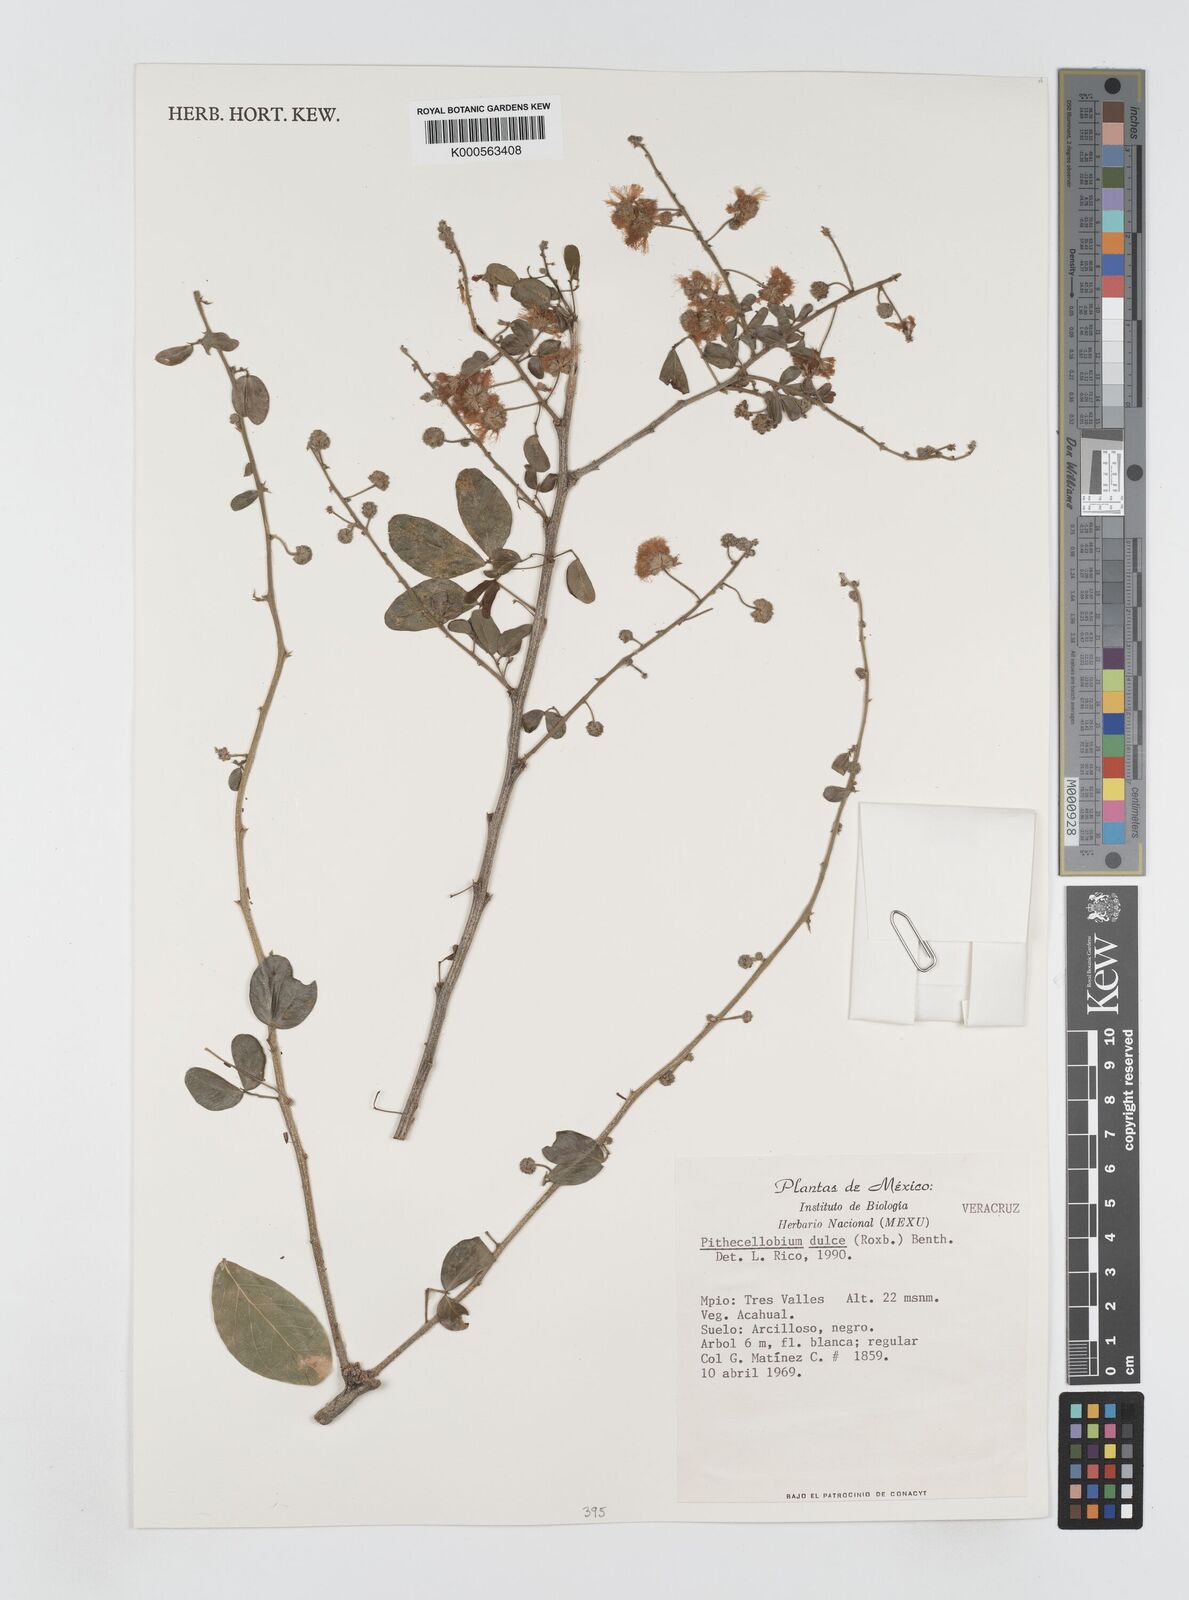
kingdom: Plantae
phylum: Tracheophyta
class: Magnoliopsida
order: Fabales
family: Fabaceae
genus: Pithecellobium
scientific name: Pithecellobium dulce
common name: Monkeypod
